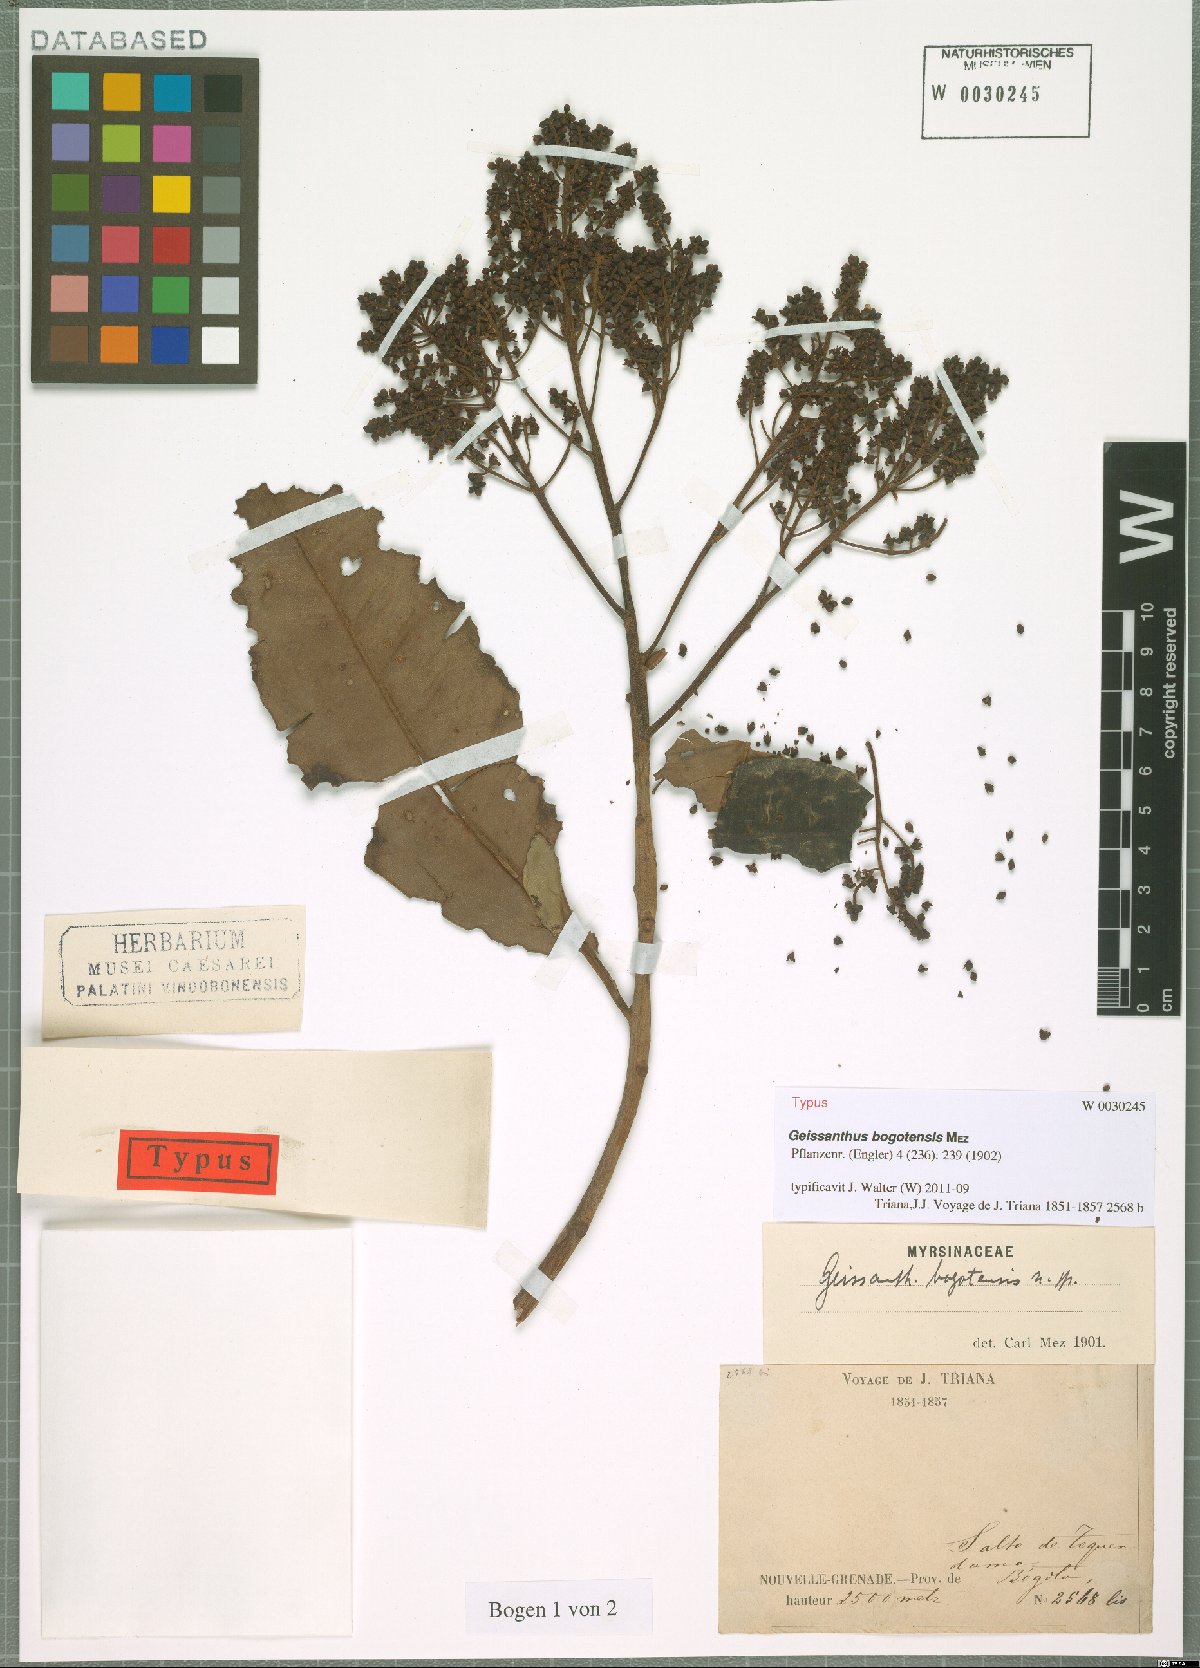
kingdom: Plantae
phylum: Tracheophyta
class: Magnoliopsida
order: Ericales
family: Primulaceae
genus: Geissanthus
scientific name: Geissanthus bogotensis
